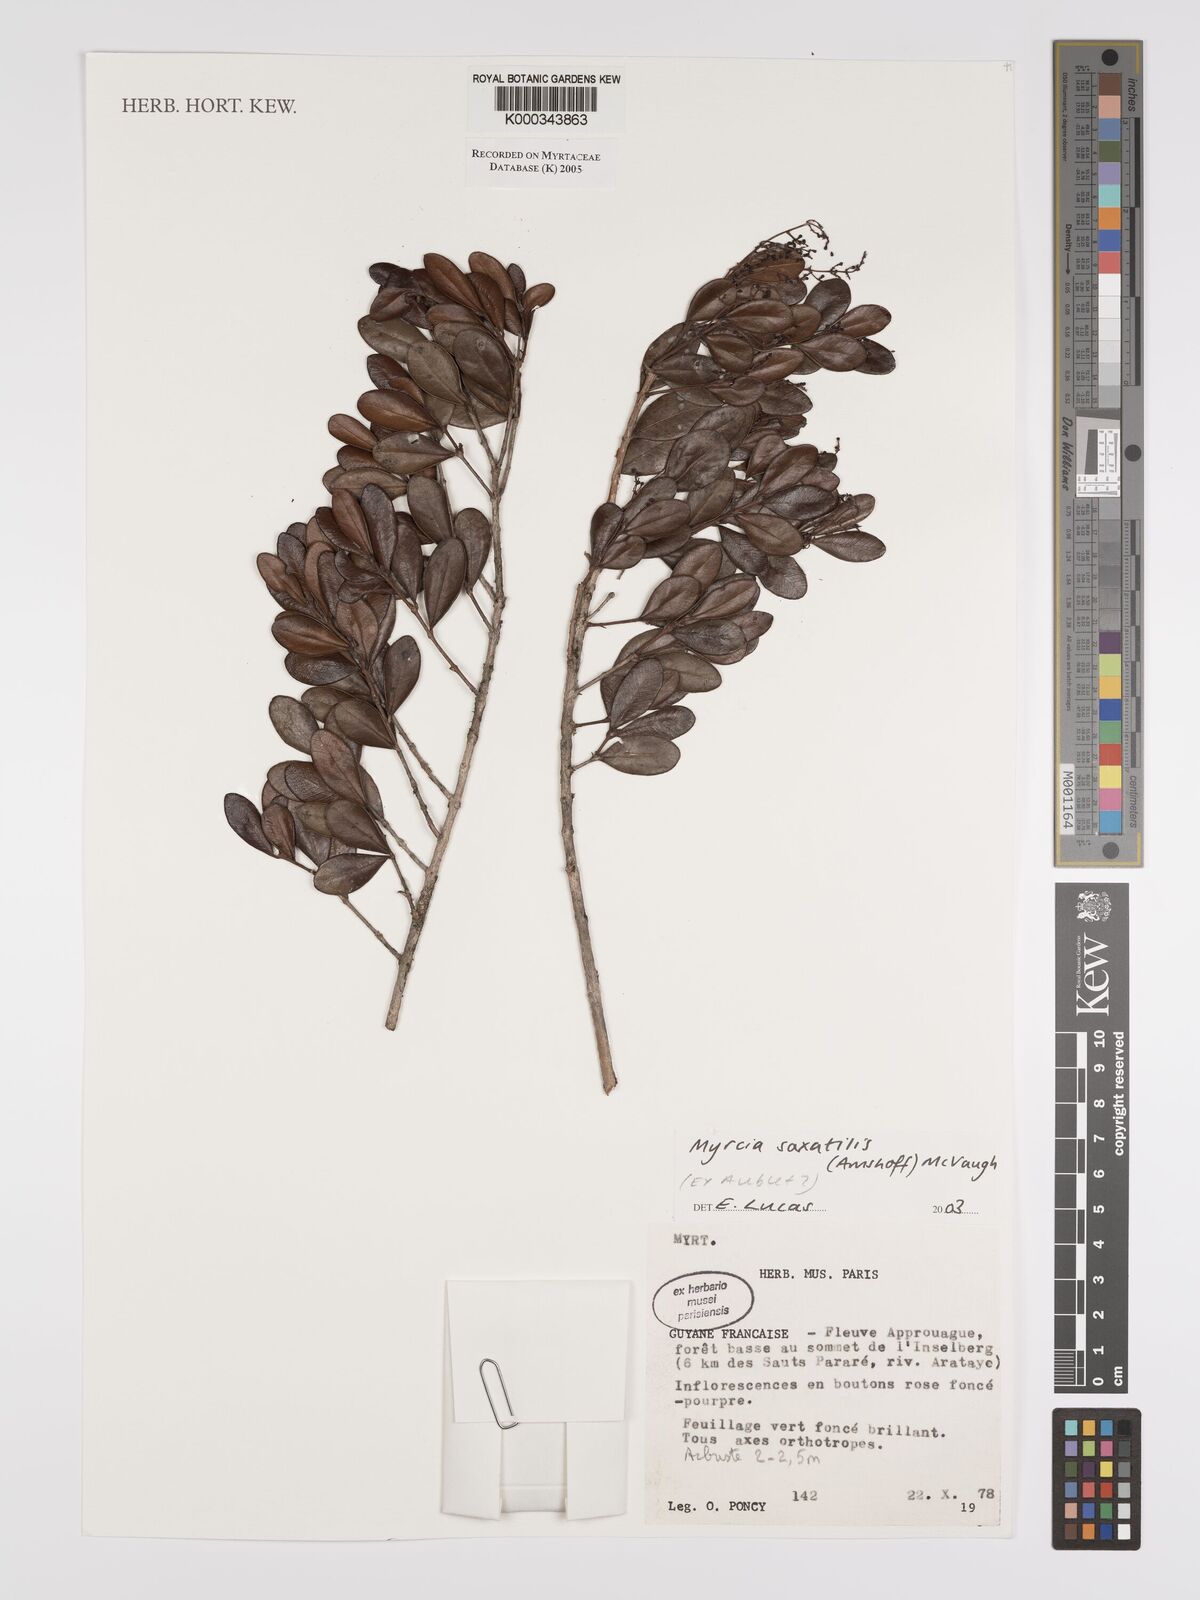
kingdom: Plantae
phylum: Tracheophyta
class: Magnoliopsida
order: Myrtales
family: Myrtaceae
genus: Myrcia
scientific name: Myrcia saxatilis
